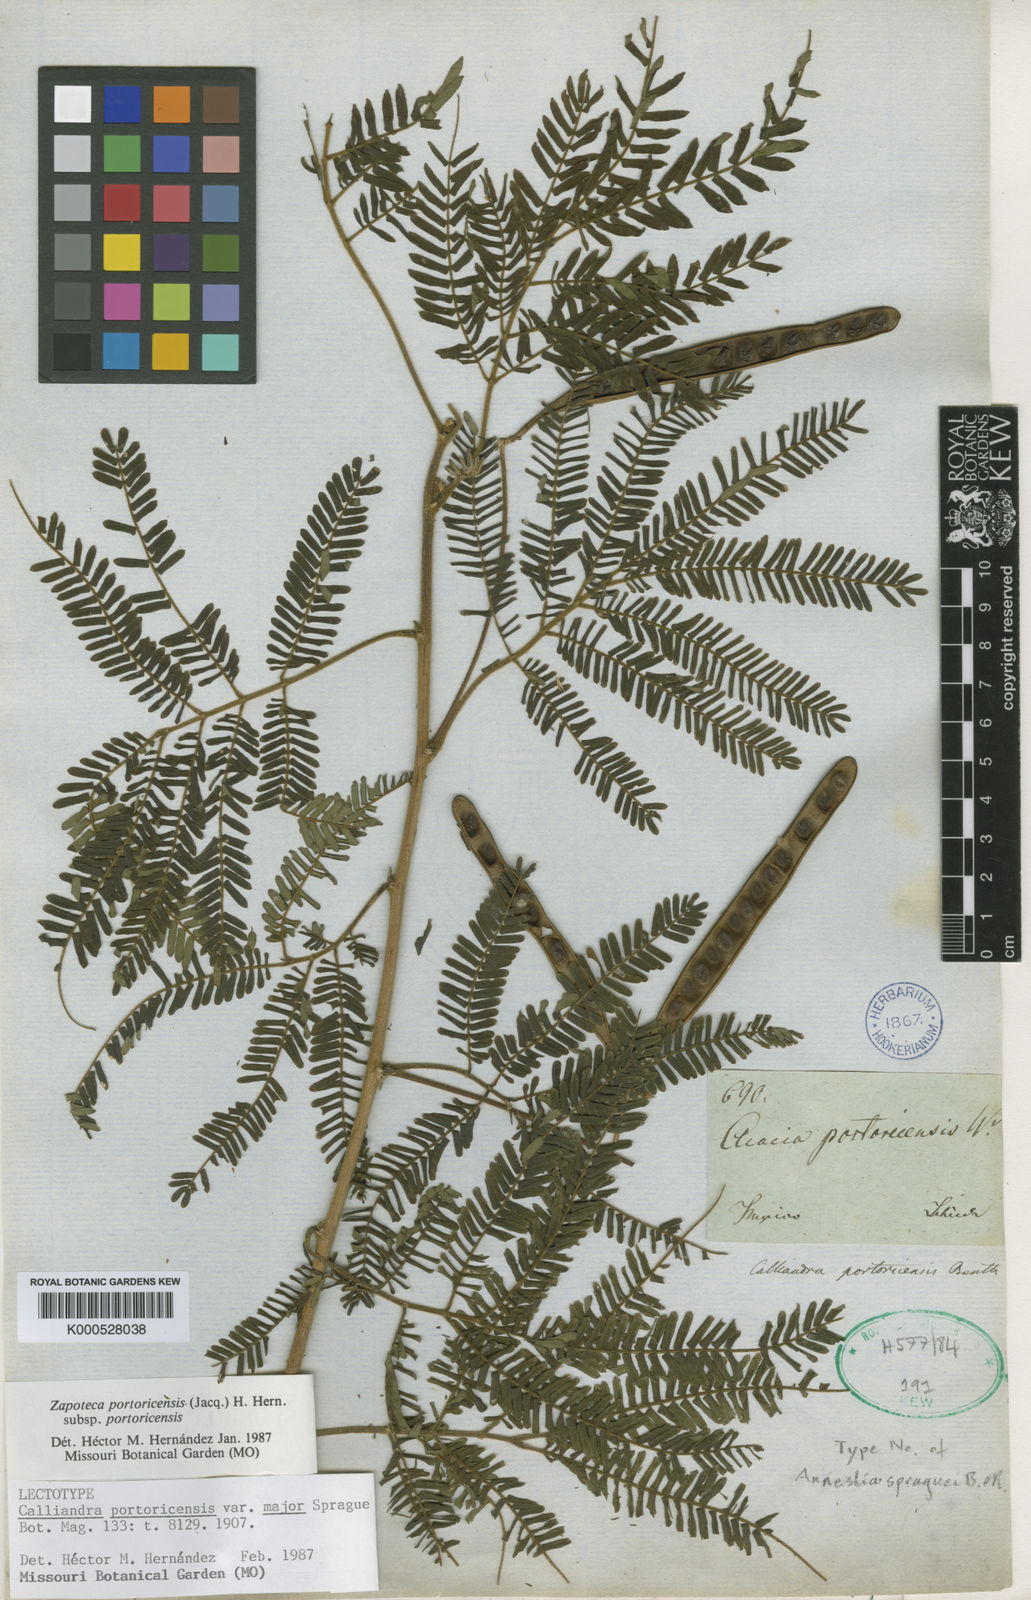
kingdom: Plantae
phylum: Tracheophyta
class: Magnoliopsida
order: Fabales
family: Fabaceae
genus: Zapoteca
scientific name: Zapoteca portoricensis
